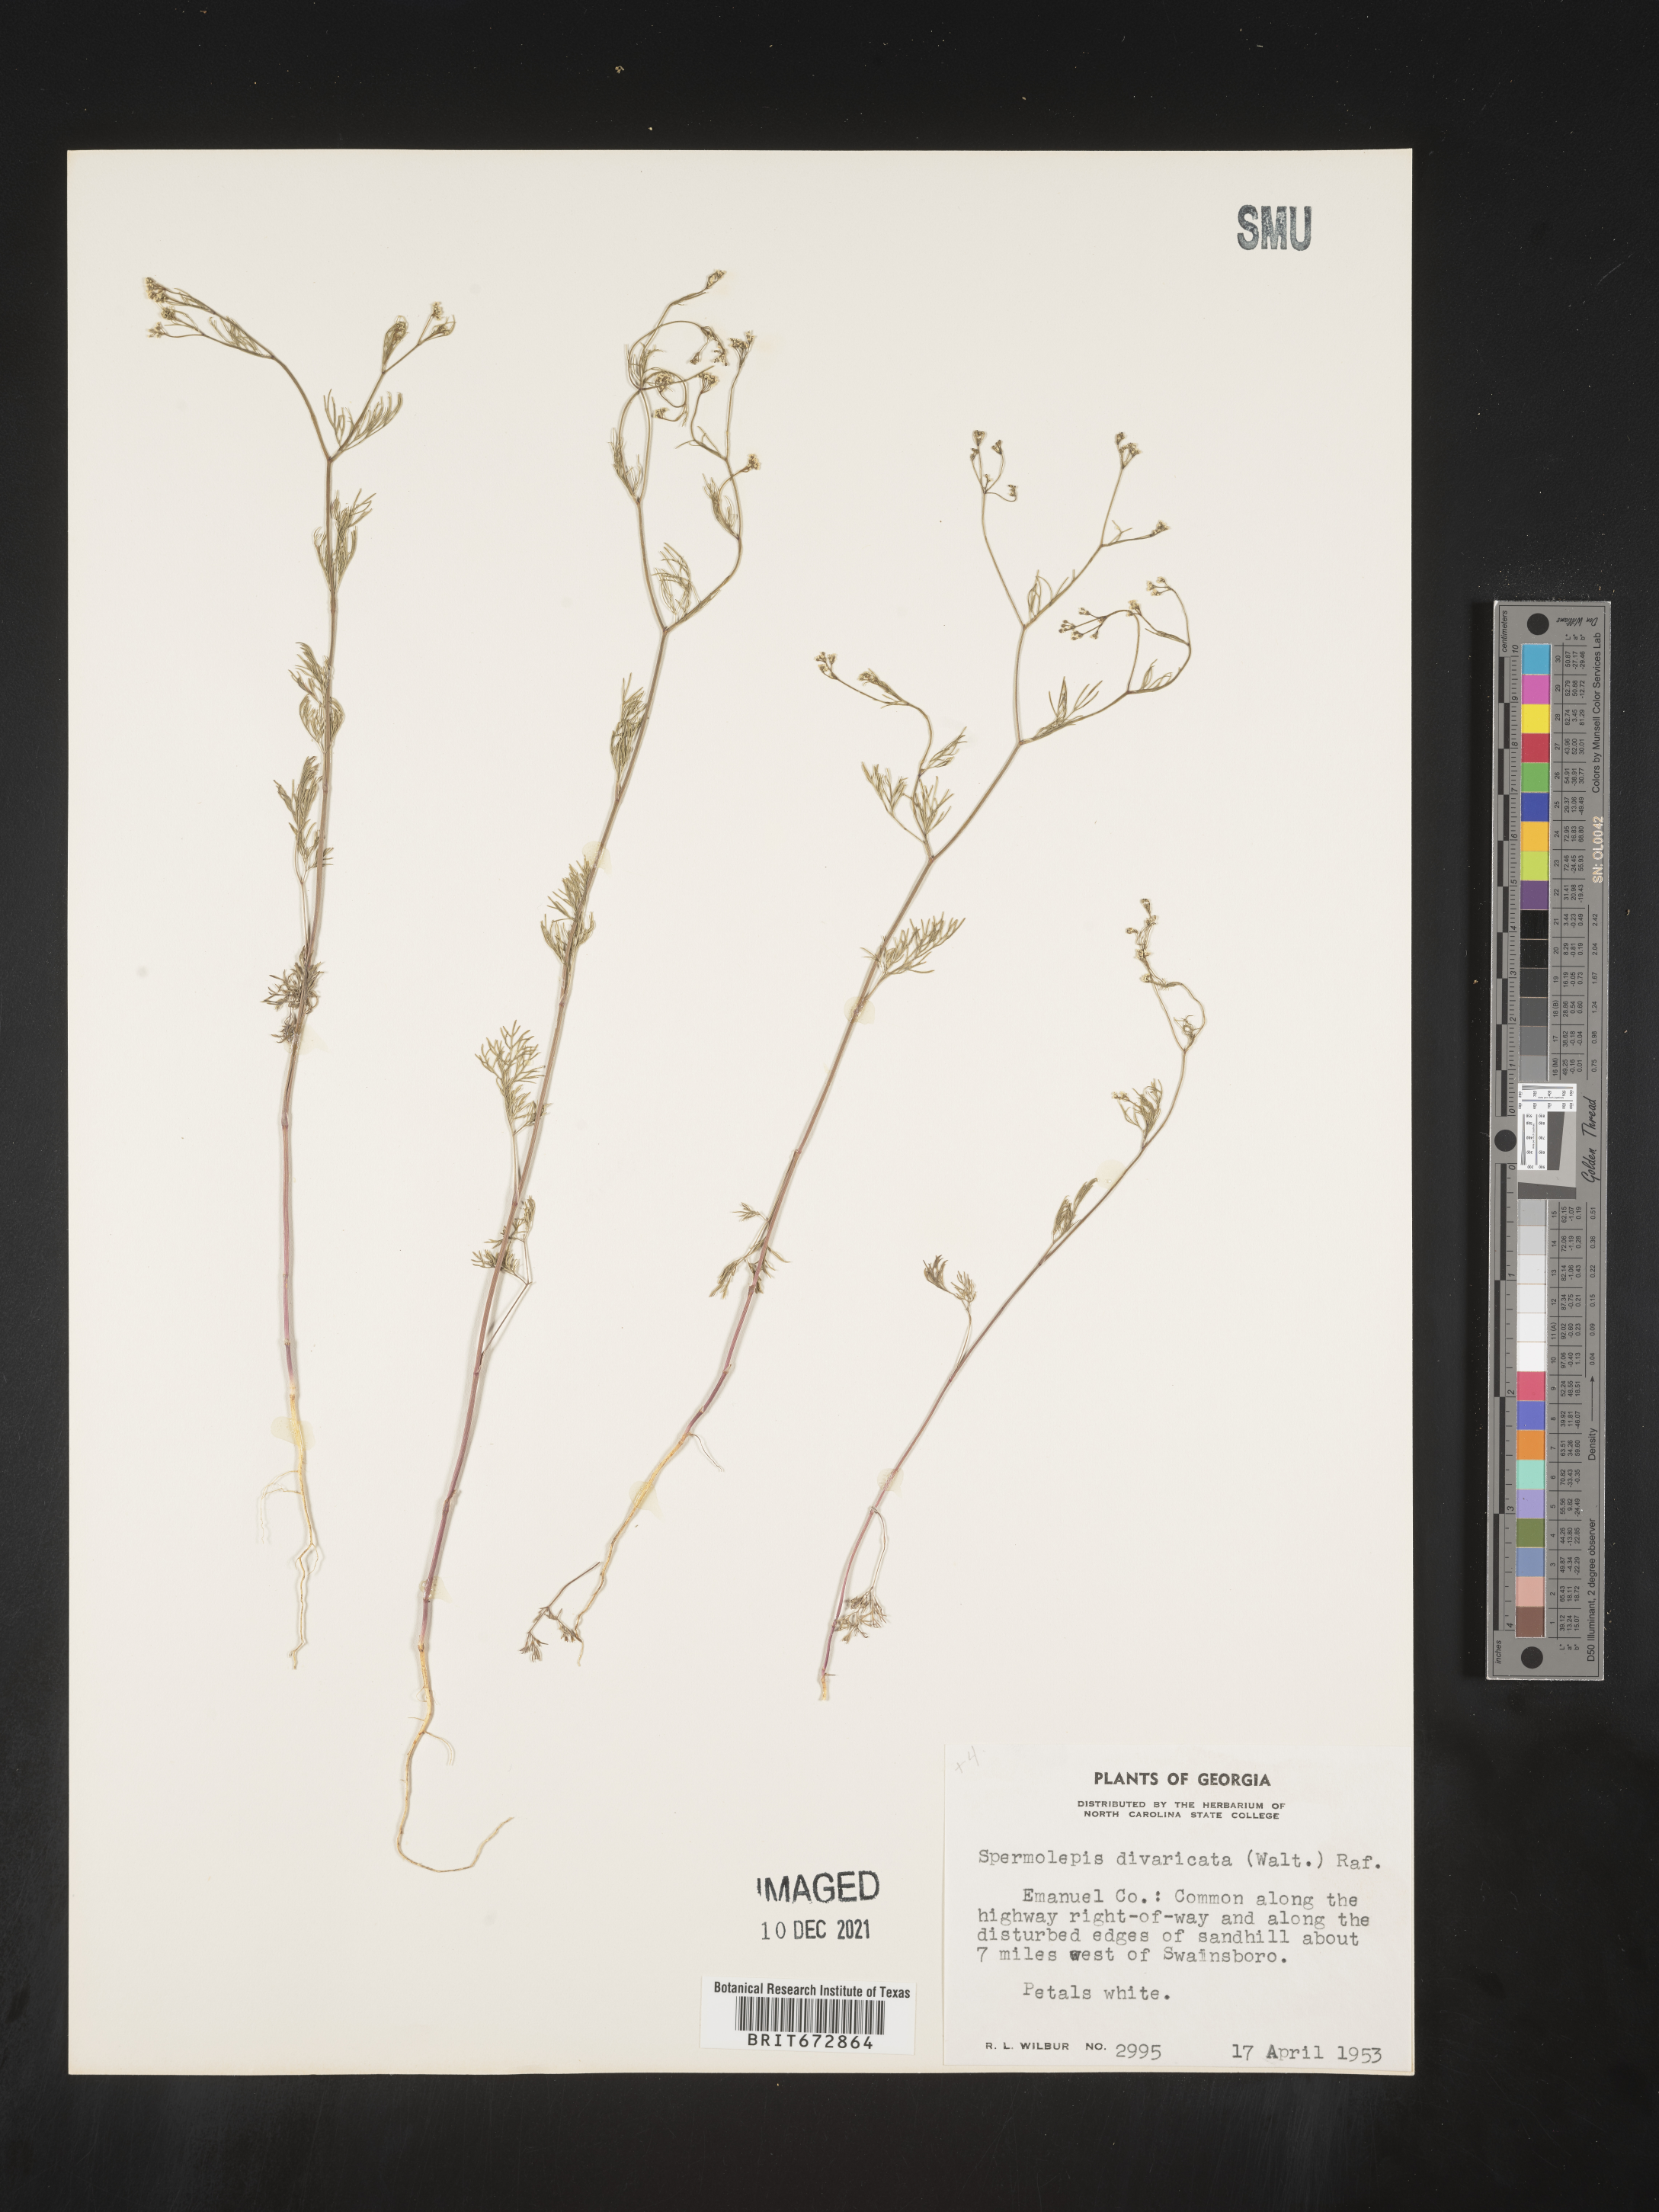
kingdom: Plantae
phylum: Tracheophyta
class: Magnoliopsida
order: Apiales
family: Apiaceae
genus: Spermolepis
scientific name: Spermolepis divaricata
